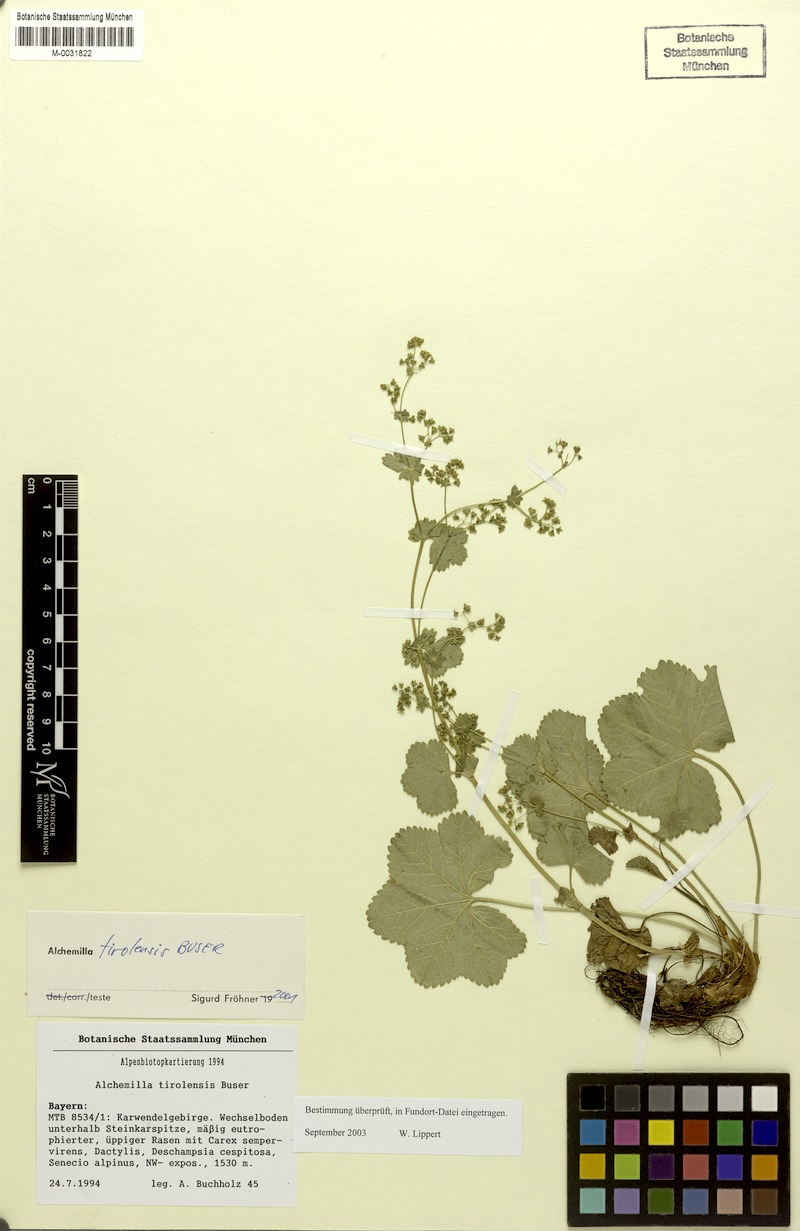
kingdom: Plantae
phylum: Tracheophyta
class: Magnoliopsida
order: Rosales
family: Rosaceae
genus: Alchemilla
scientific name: Alchemilla tirolensis
